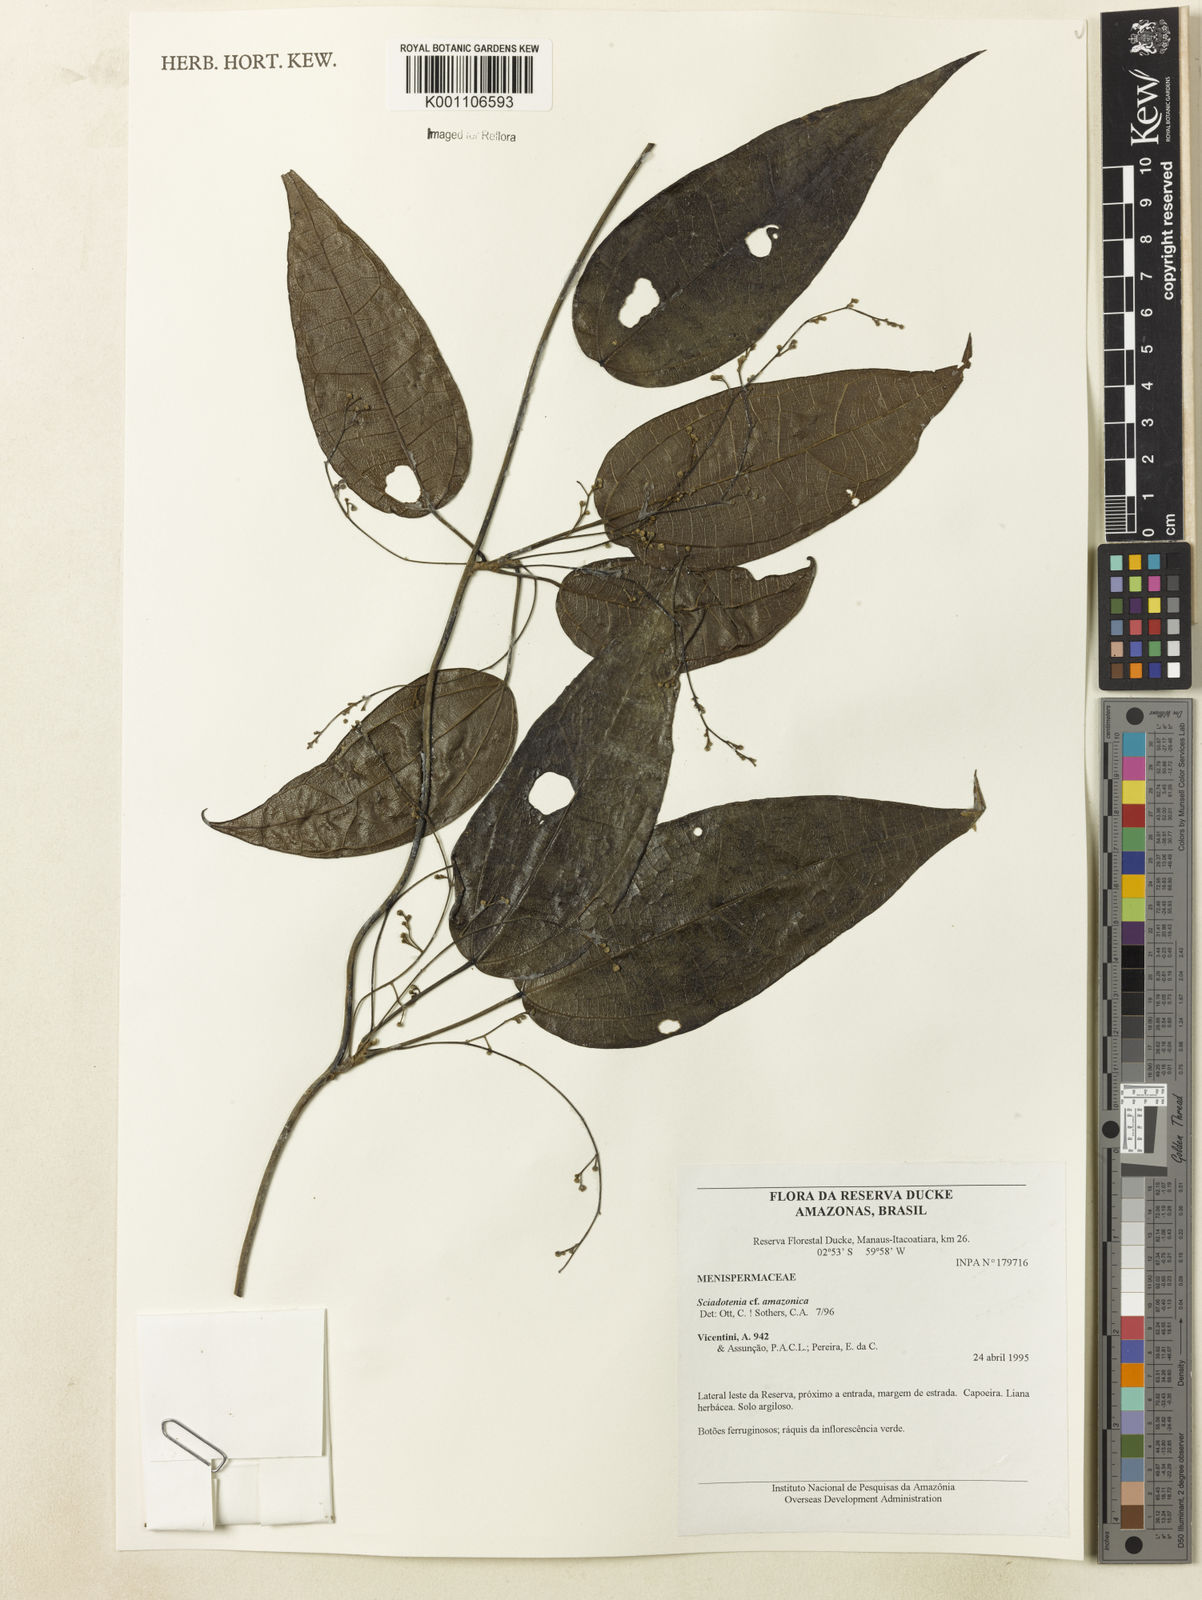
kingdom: Plantae
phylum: Tracheophyta
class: Magnoliopsida
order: Ranunculales
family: Menispermaceae
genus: Sciadotenia
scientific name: Sciadotenia amazonica
